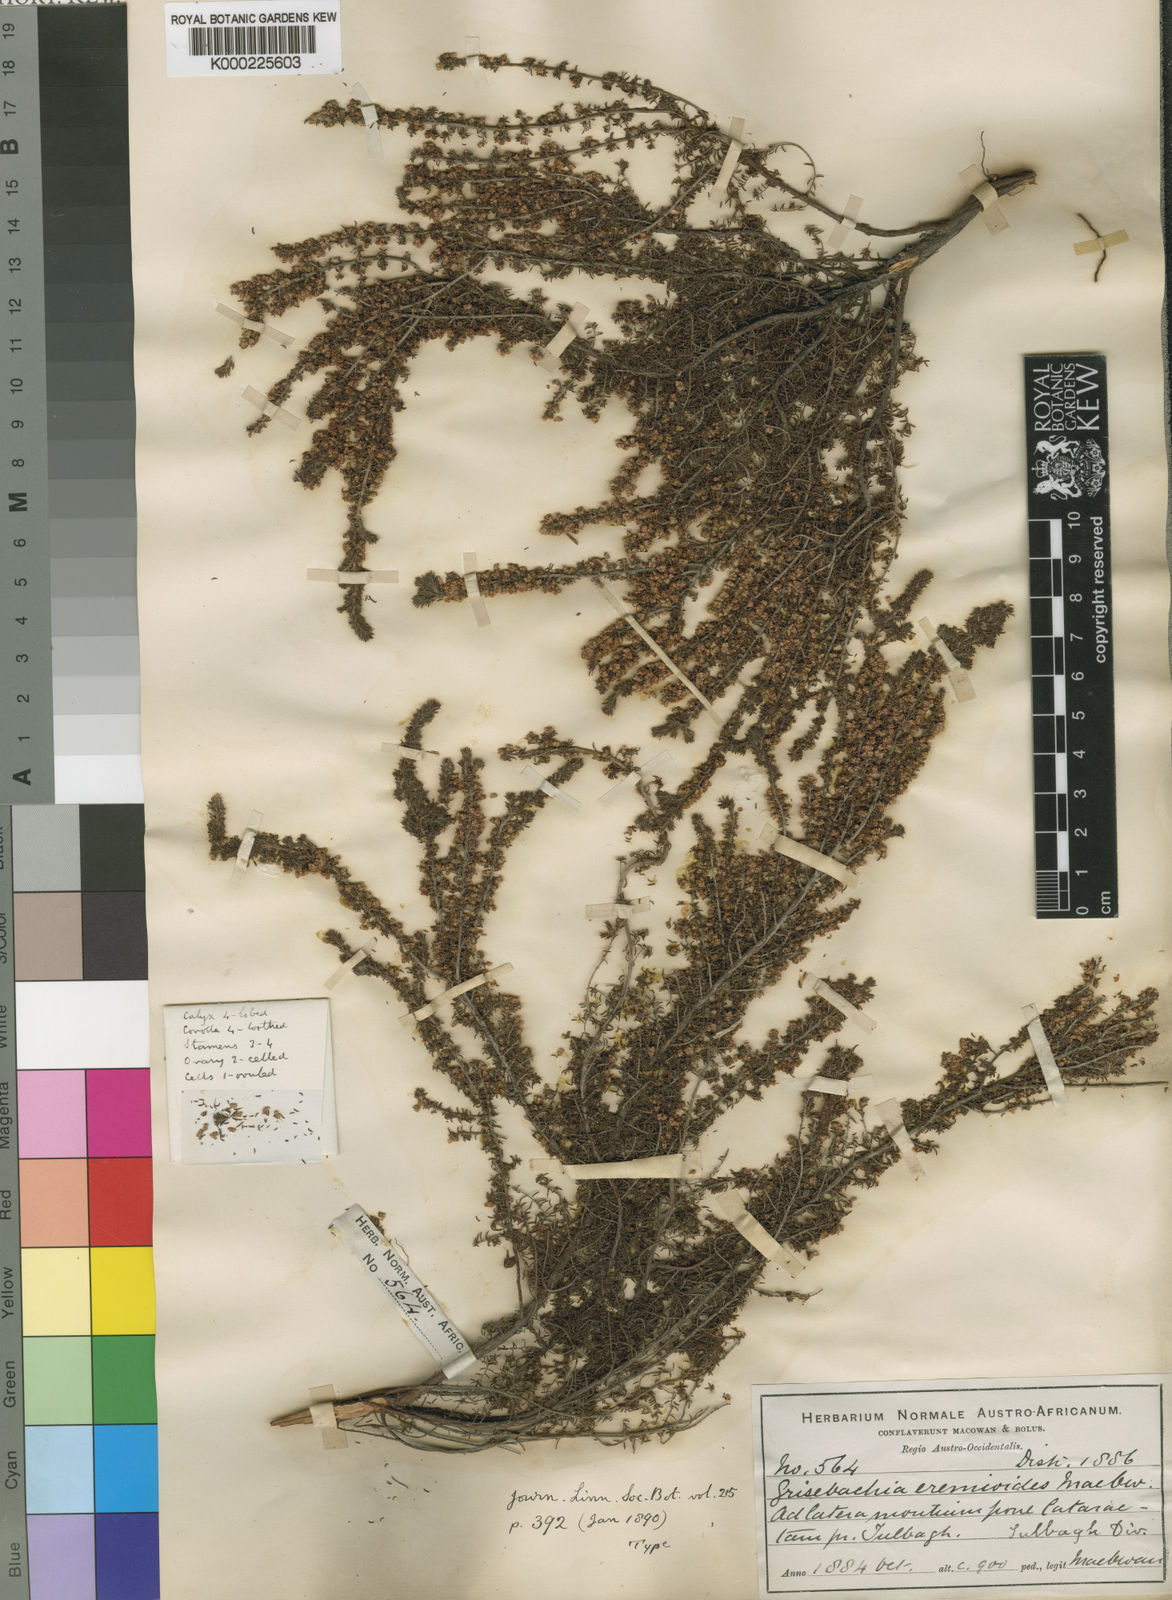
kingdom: Plantae
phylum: Tracheophyta
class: Magnoliopsida
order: Ericales
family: Ericaceae
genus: Erica
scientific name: Erica
